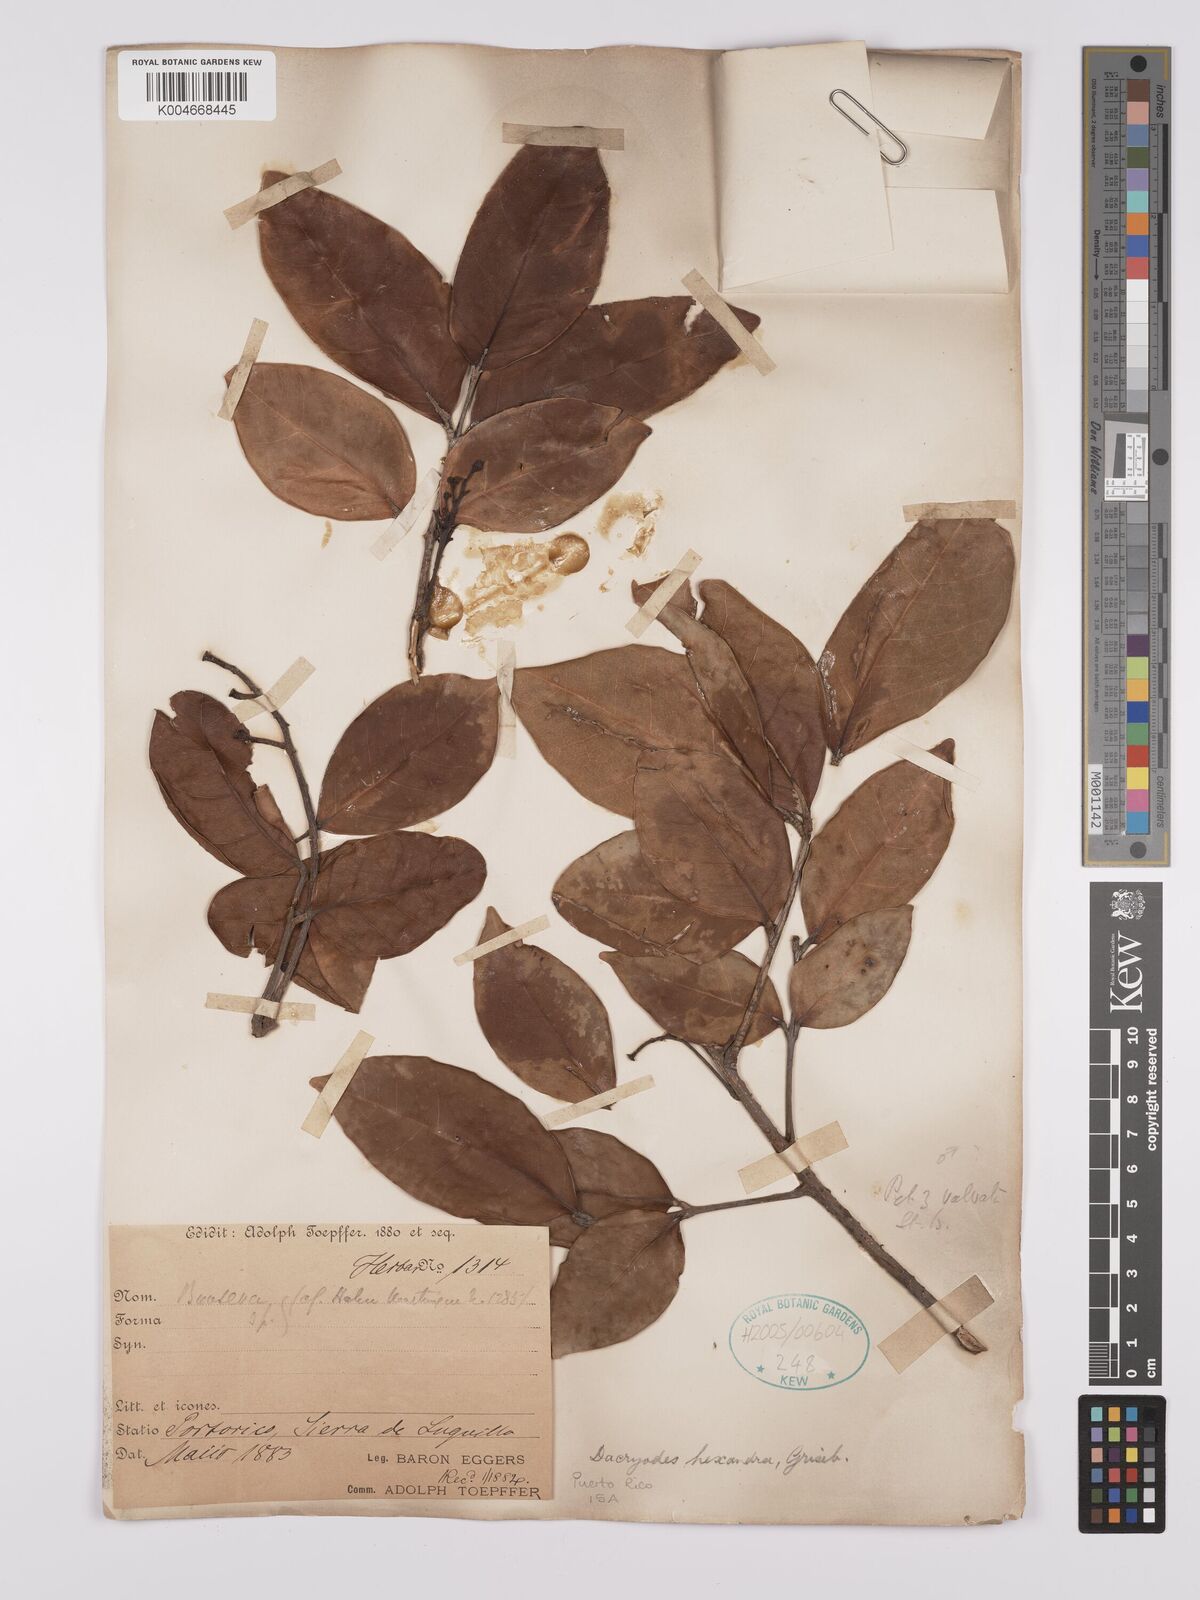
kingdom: Plantae
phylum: Tracheophyta
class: Magnoliopsida
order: Sapindales
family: Burseraceae
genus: Dacryodes
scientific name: Dacryodes excelsa
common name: Candlewood
